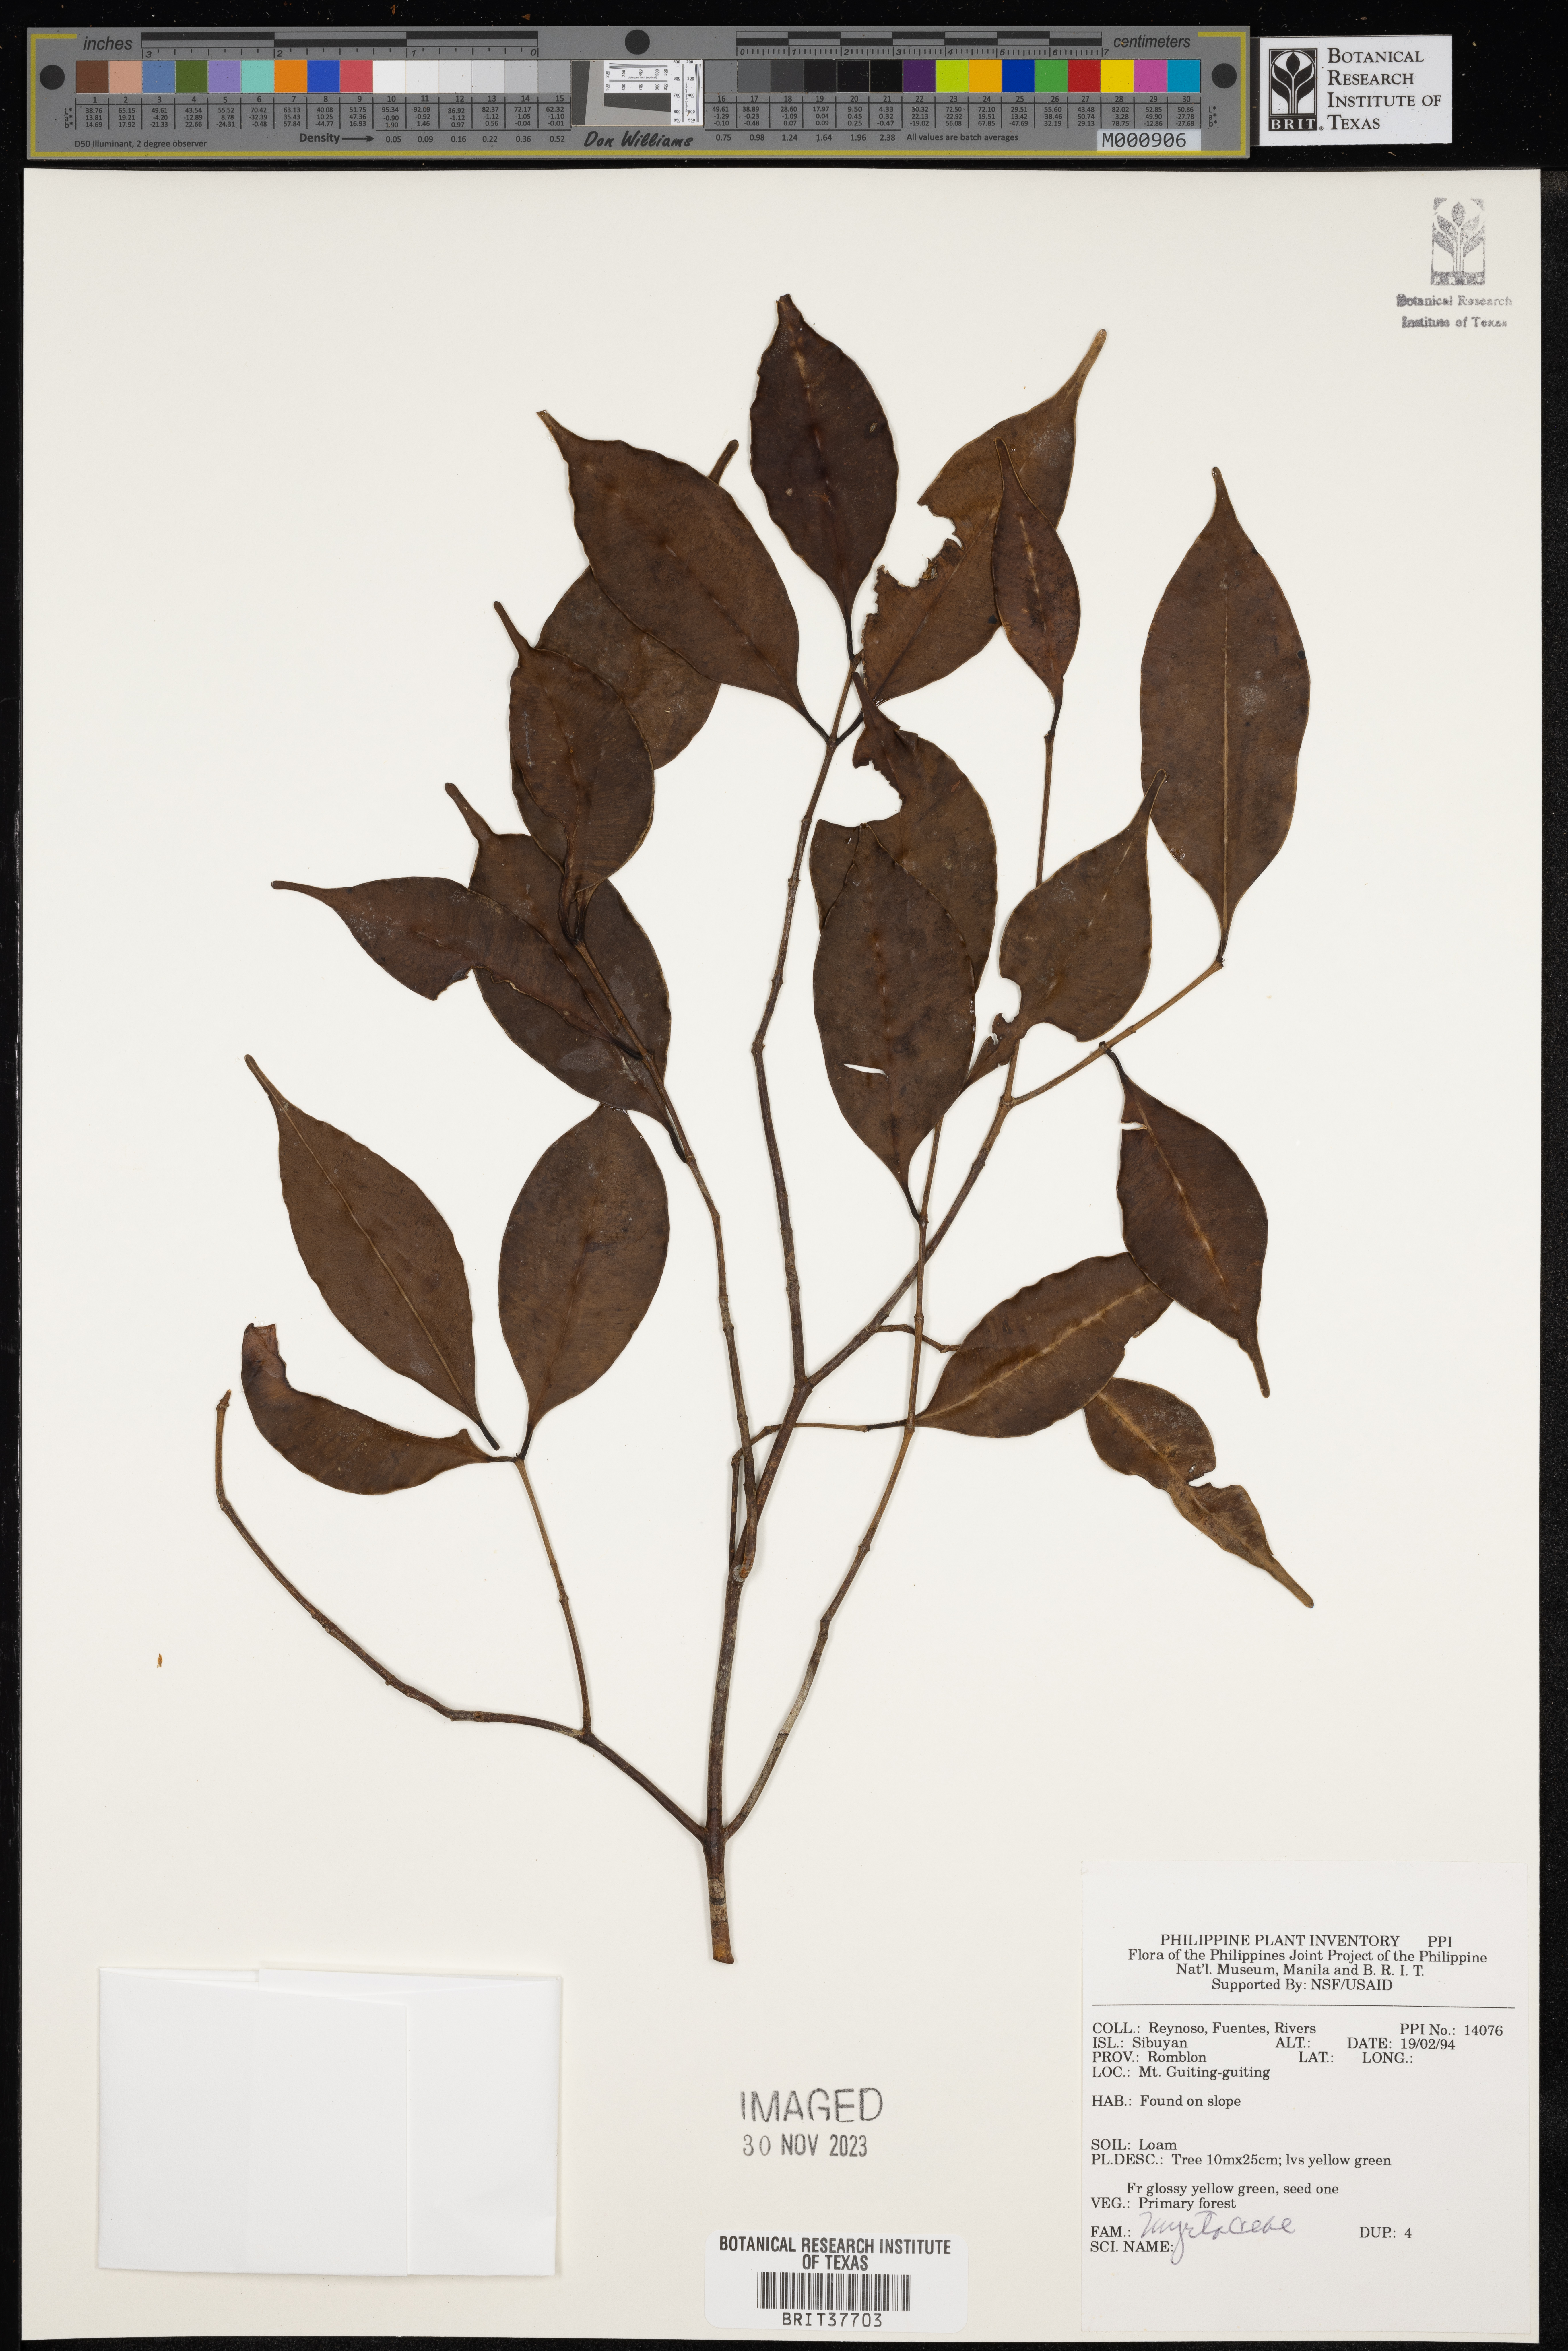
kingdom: Plantae
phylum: Tracheophyta
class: Magnoliopsida
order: Myrtales
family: Myrtaceae
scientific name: Myrtaceae
